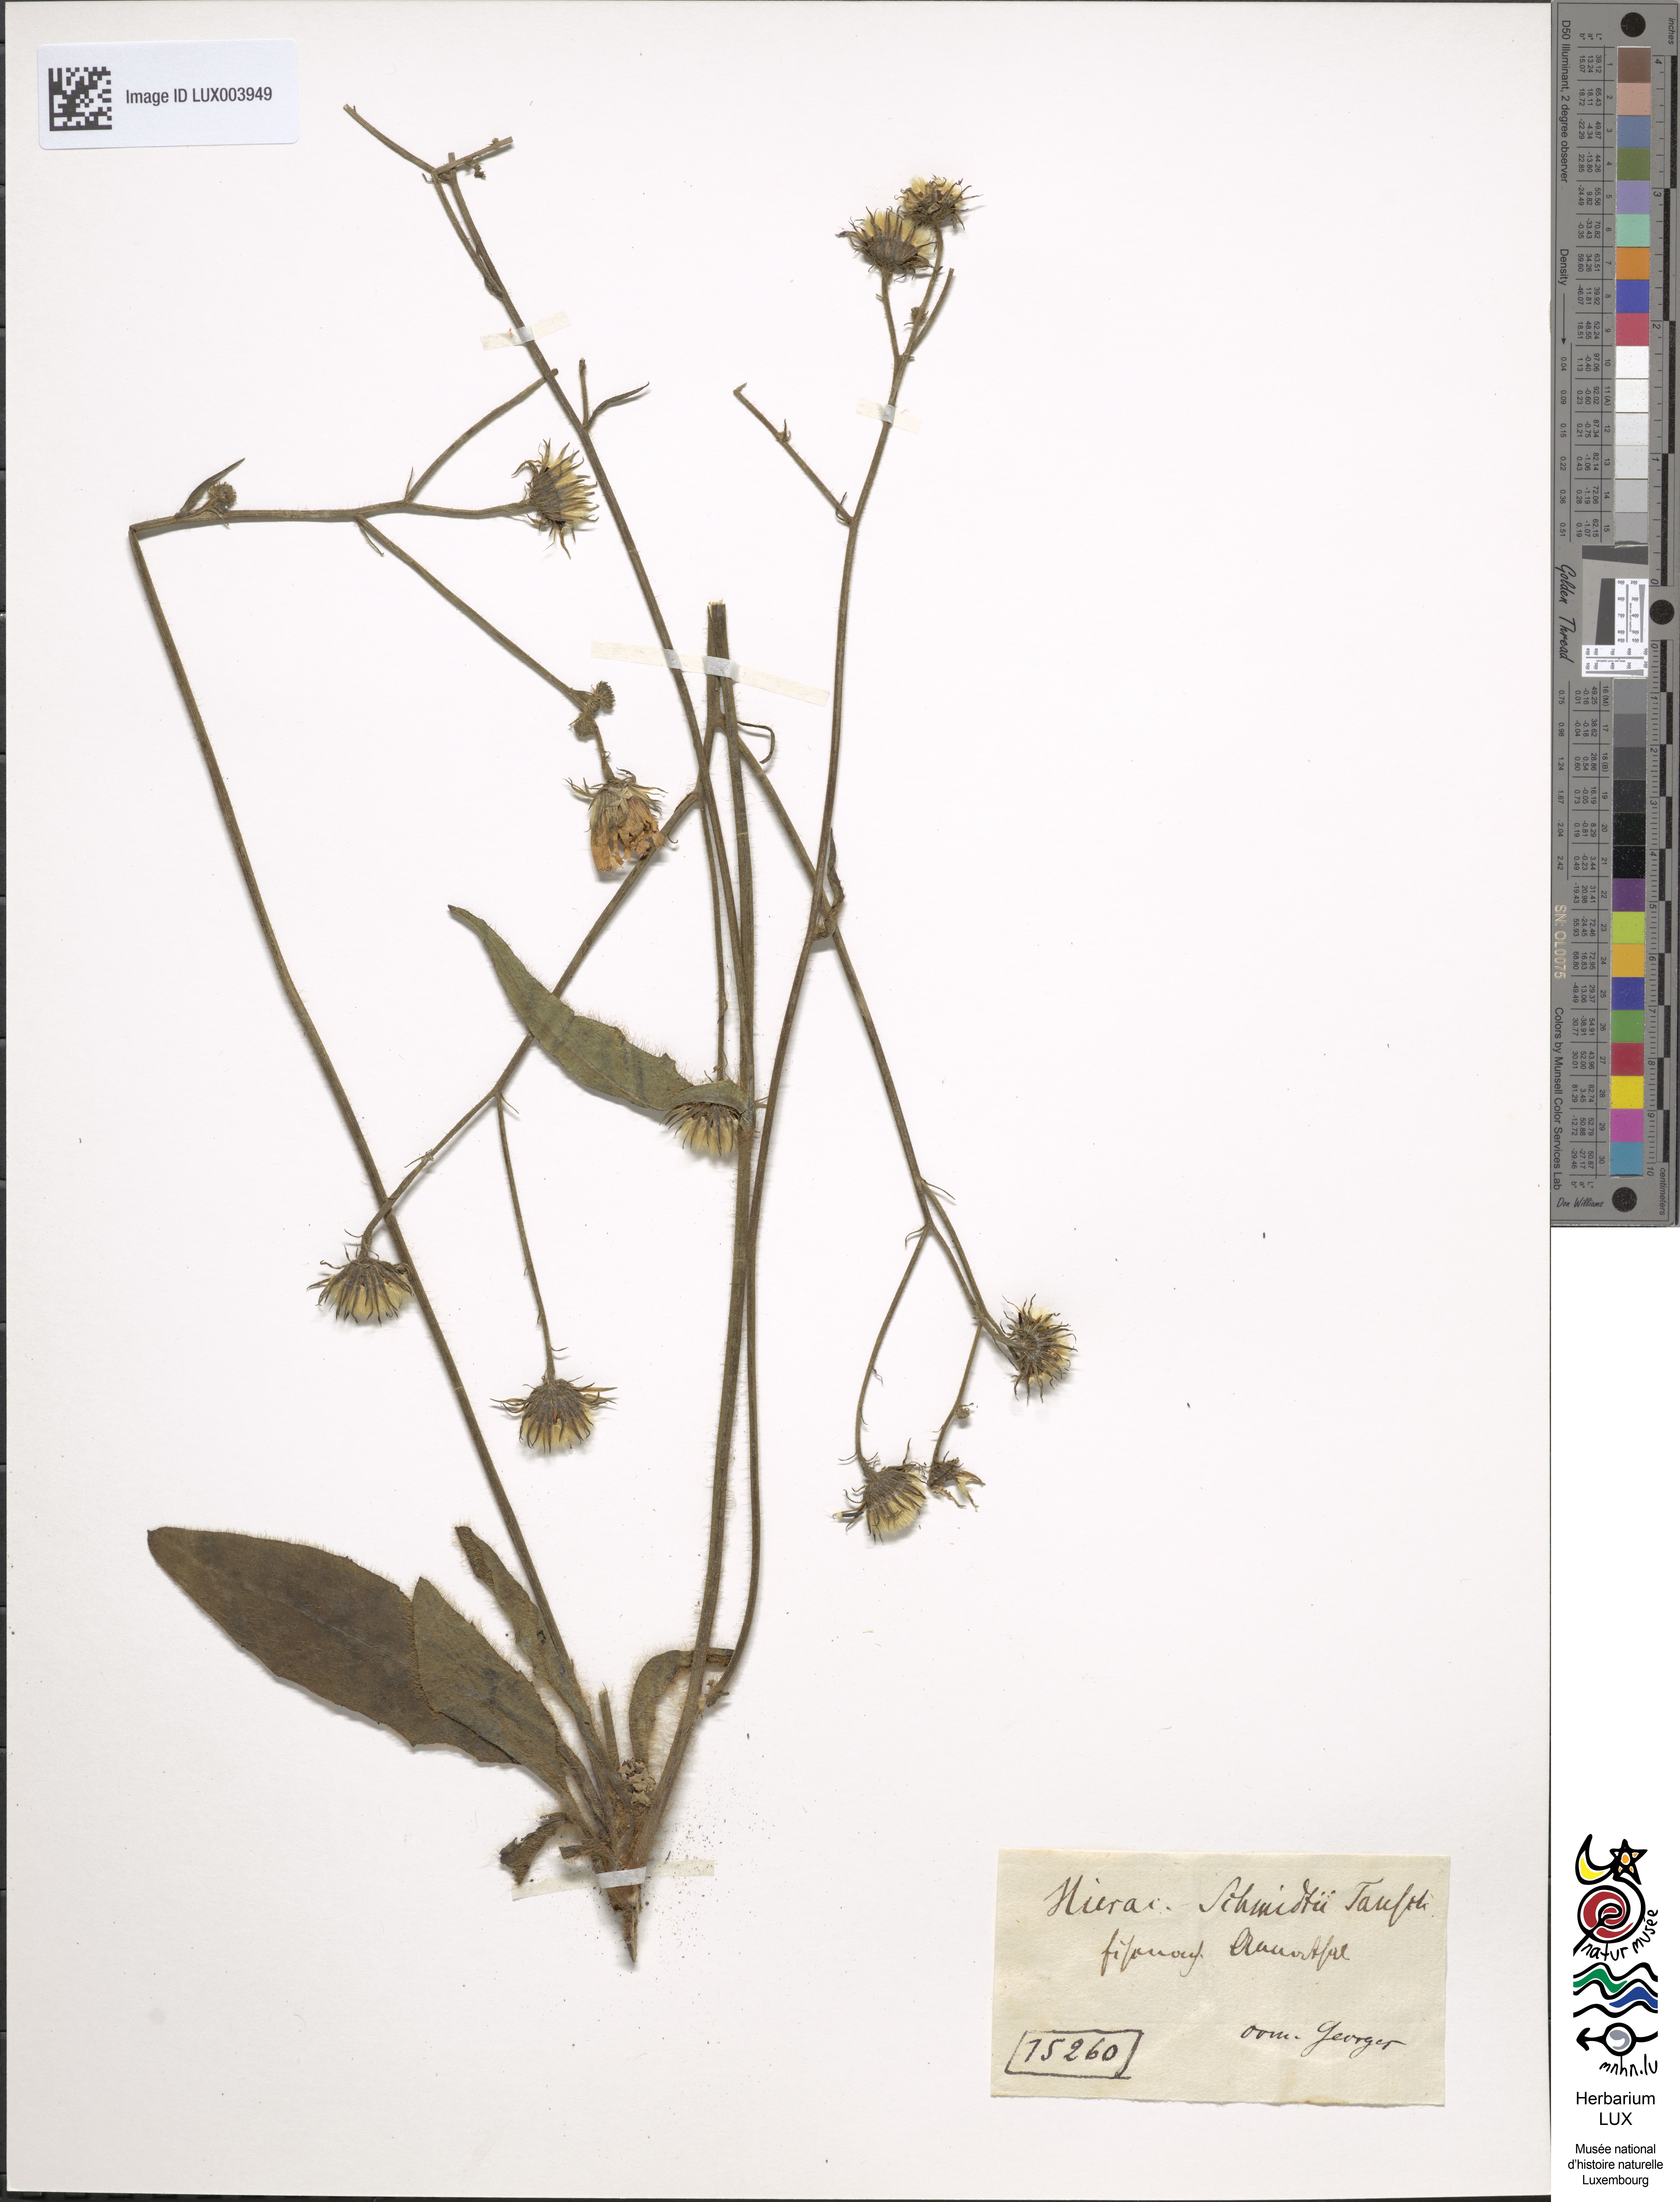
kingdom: Plantae
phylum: Tracheophyta
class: Magnoliopsida
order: Asterales
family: Asteraceae
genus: Hieracium
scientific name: Hieracium schmidtii
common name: Schmidt's hawkweed
